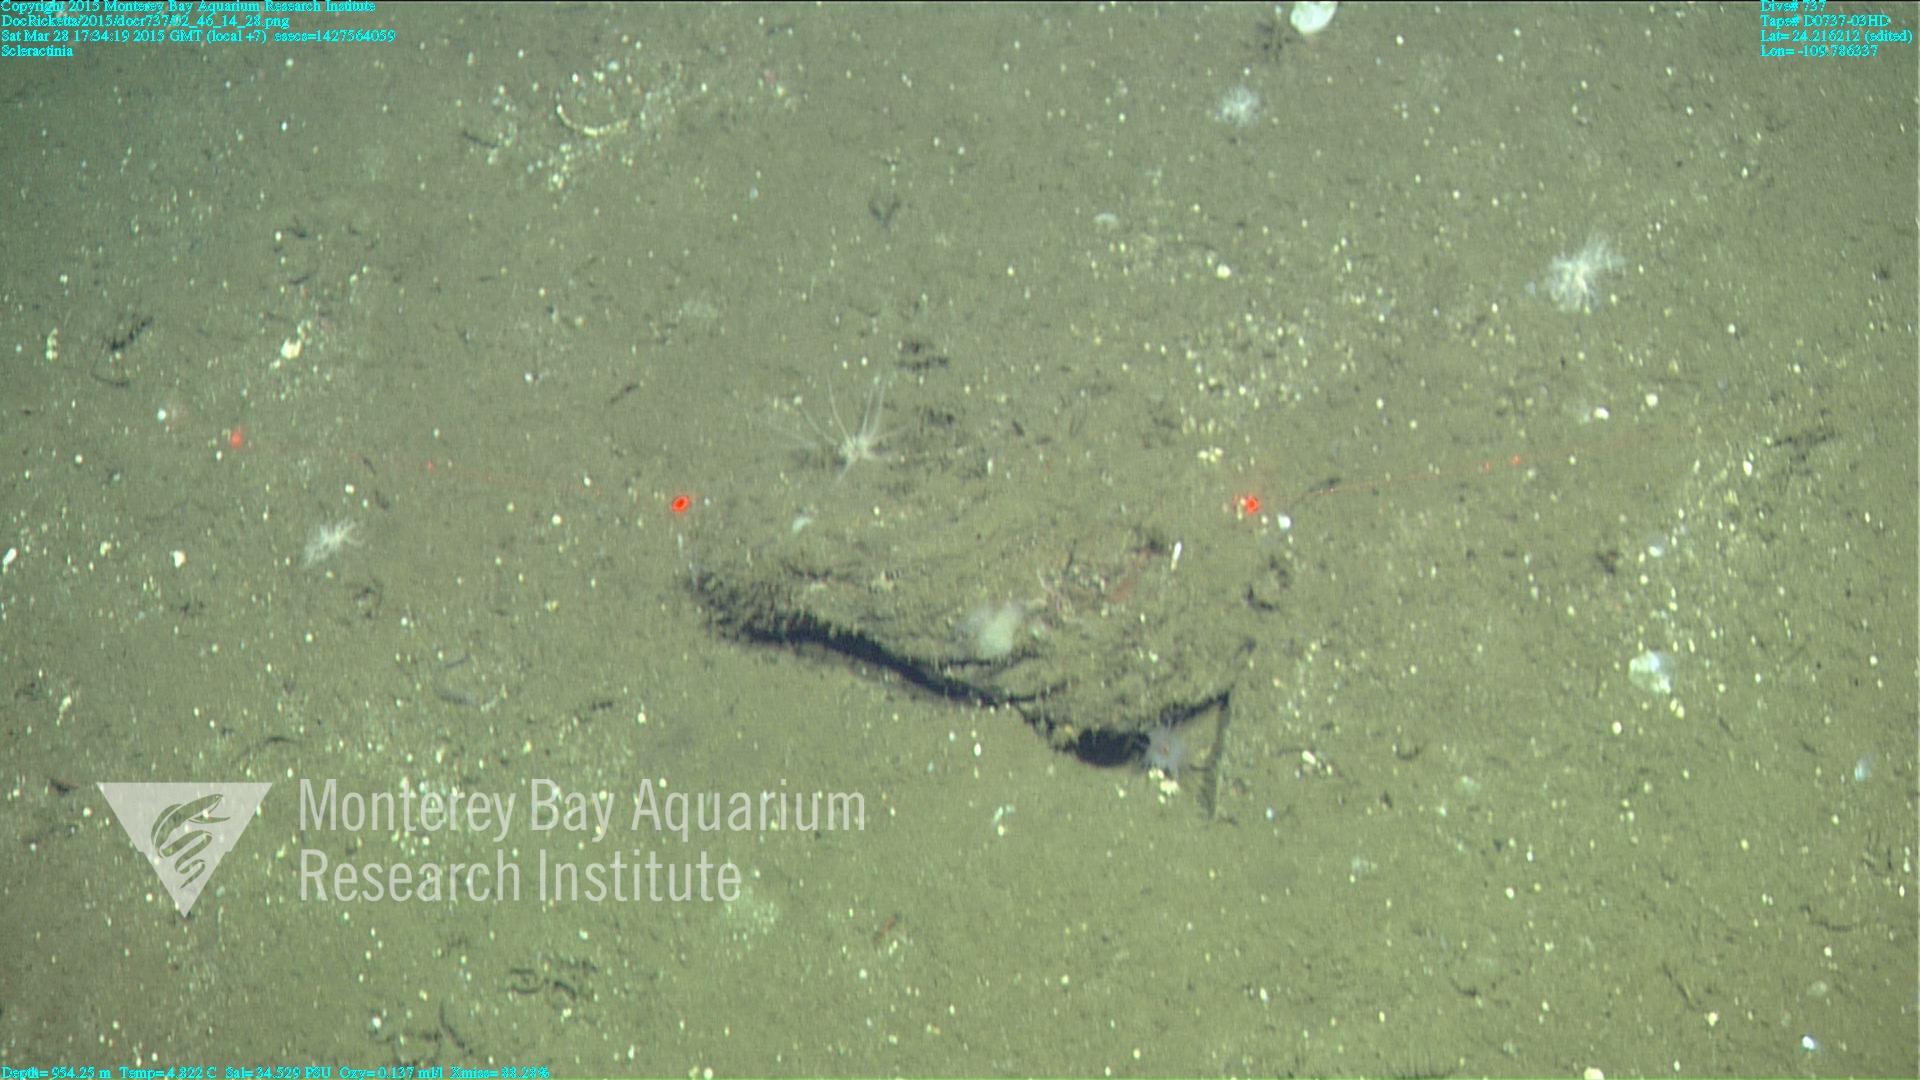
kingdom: Animalia
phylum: Cnidaria
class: Anthozoa
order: Scleractinia
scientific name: Scleractinia
